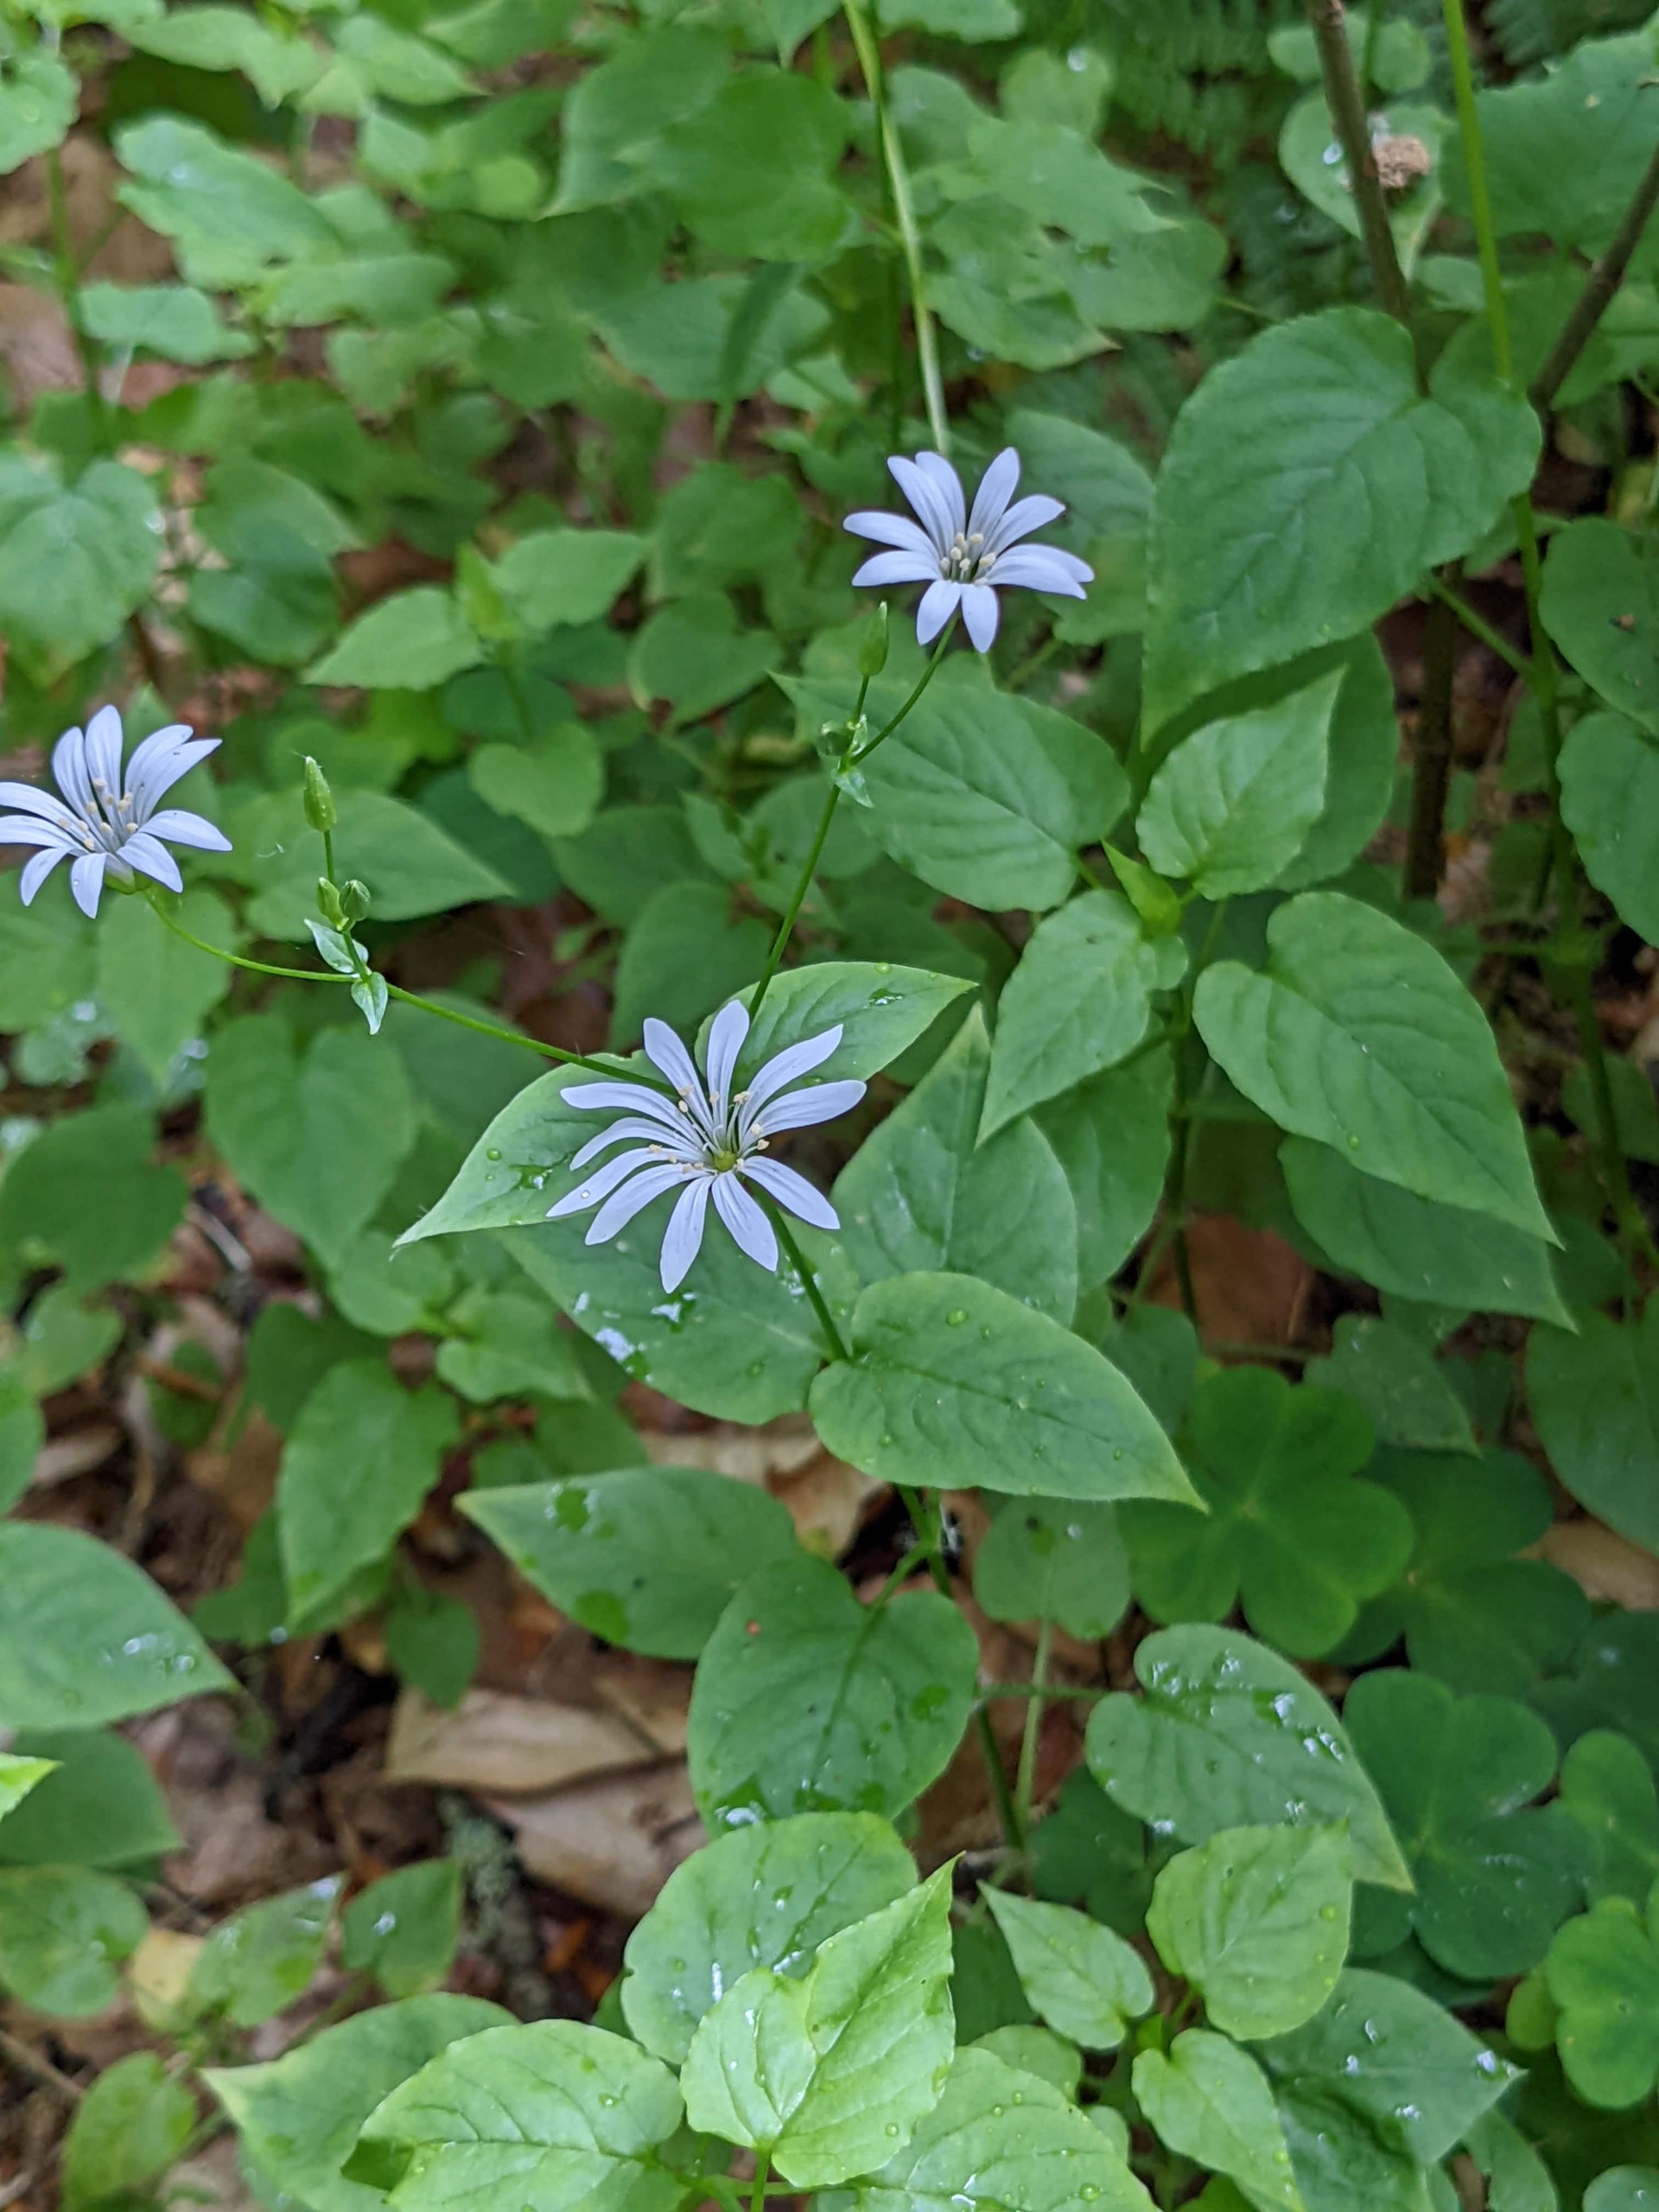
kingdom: Plantae
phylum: Tracheophyta
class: Magnoliopsida
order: Caryophyllales
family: Caryophyllaceae
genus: Stellaria
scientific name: Stellaria glochidisperma
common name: Sydlig lund-fladstjerne
